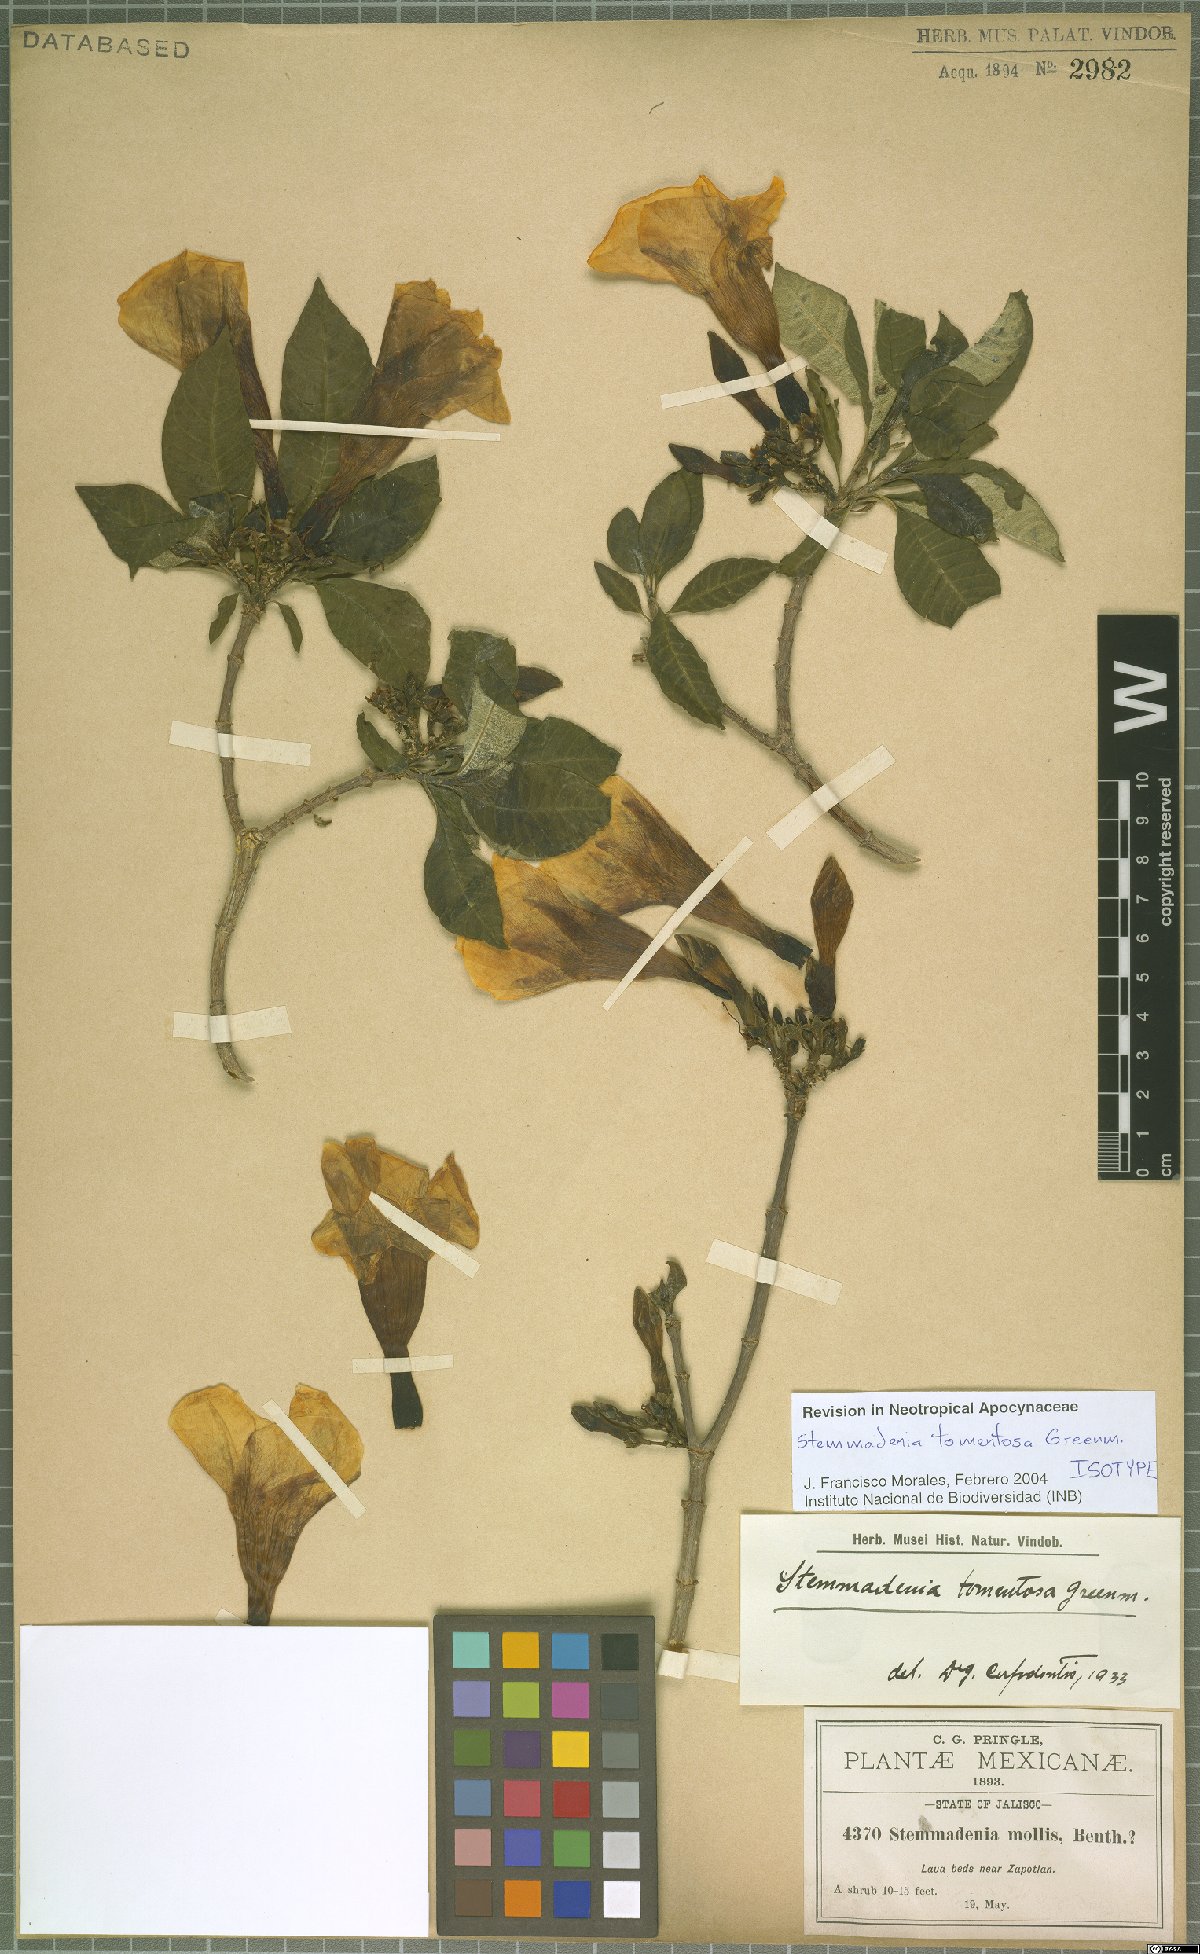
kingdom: Plantae
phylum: Tracheophyta
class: Magnoliopsida
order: Gentianales
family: Apocynaceae
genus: Tabernaemontana
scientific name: Tabernaemontana tomentosa
